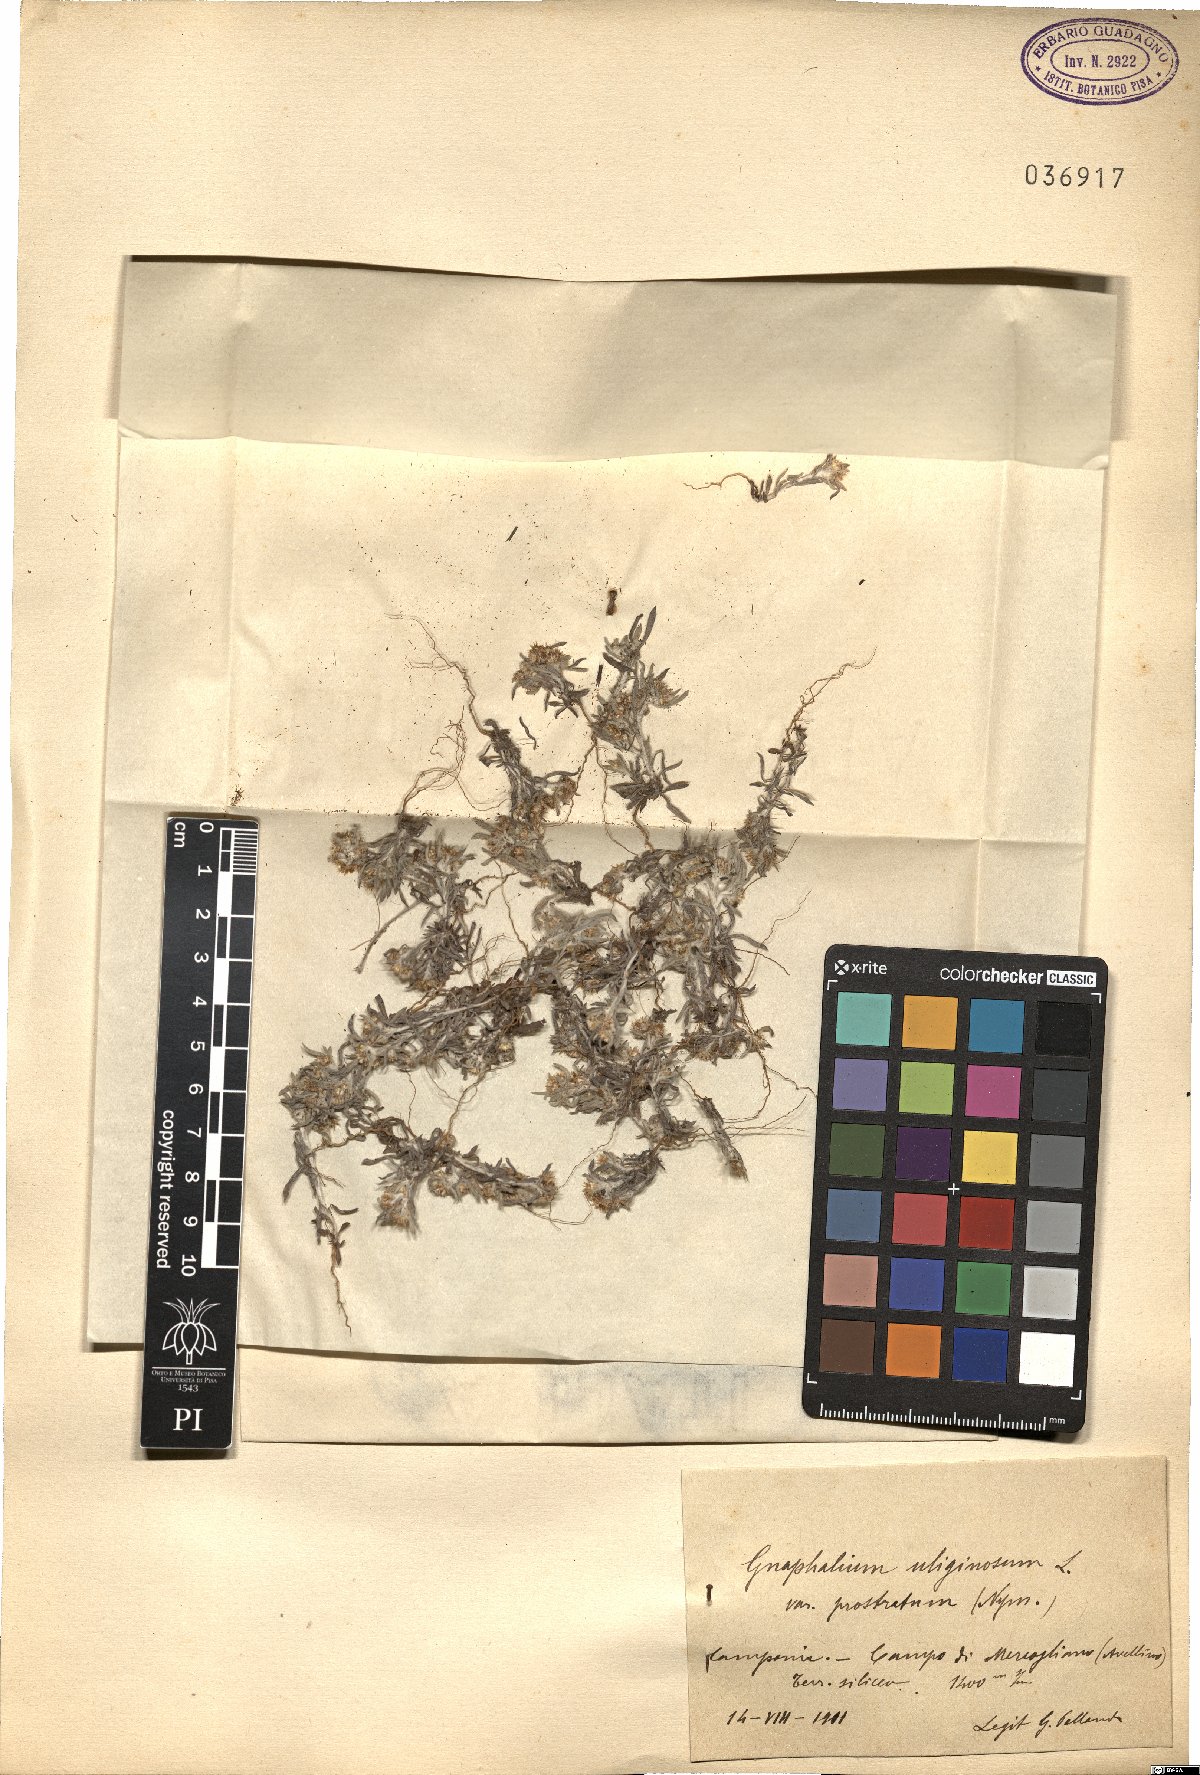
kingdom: Plantae
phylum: Tracheophyta
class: Magnoliopsida
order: Asterales
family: Asteraceae
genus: Gnaphalium
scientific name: Gnaphalium uliginosum
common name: Marsh cudweed
